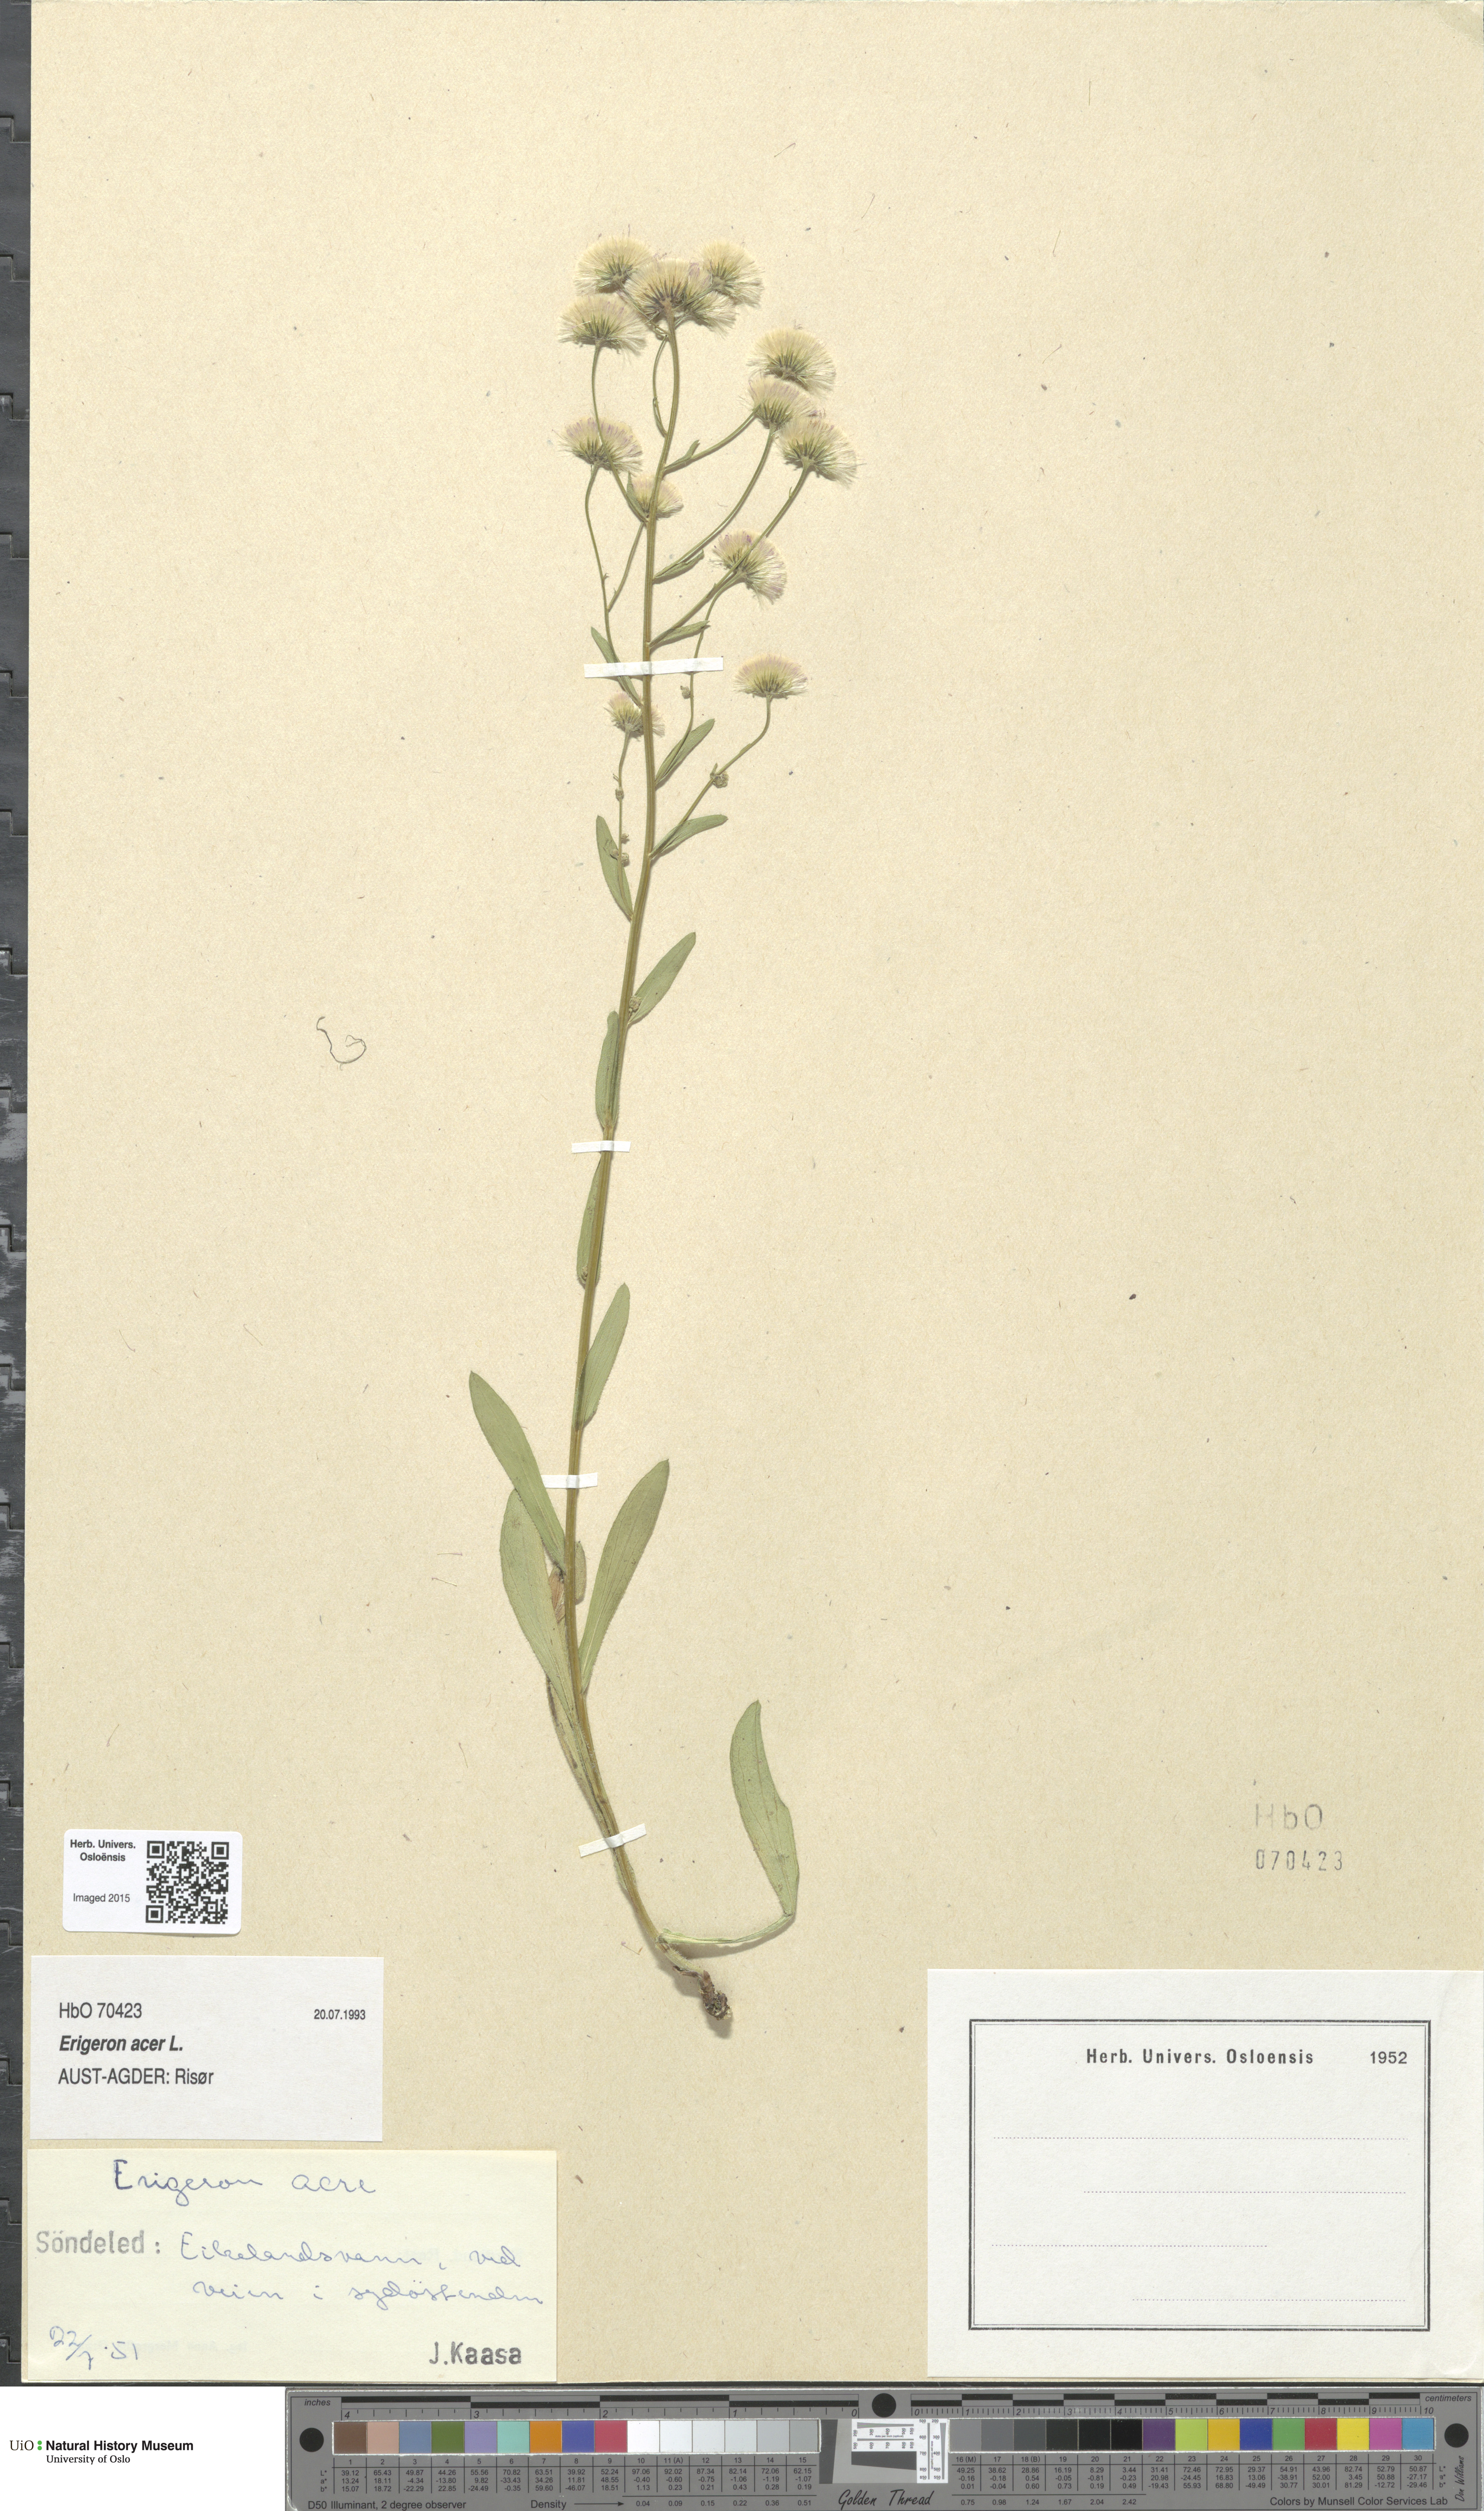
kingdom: Plantae
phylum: Tracheophyta
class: Magnoliopsida
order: Asterales
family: Asteraceae
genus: Erigeron
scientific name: Erigeron acris
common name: Blue fleabane
